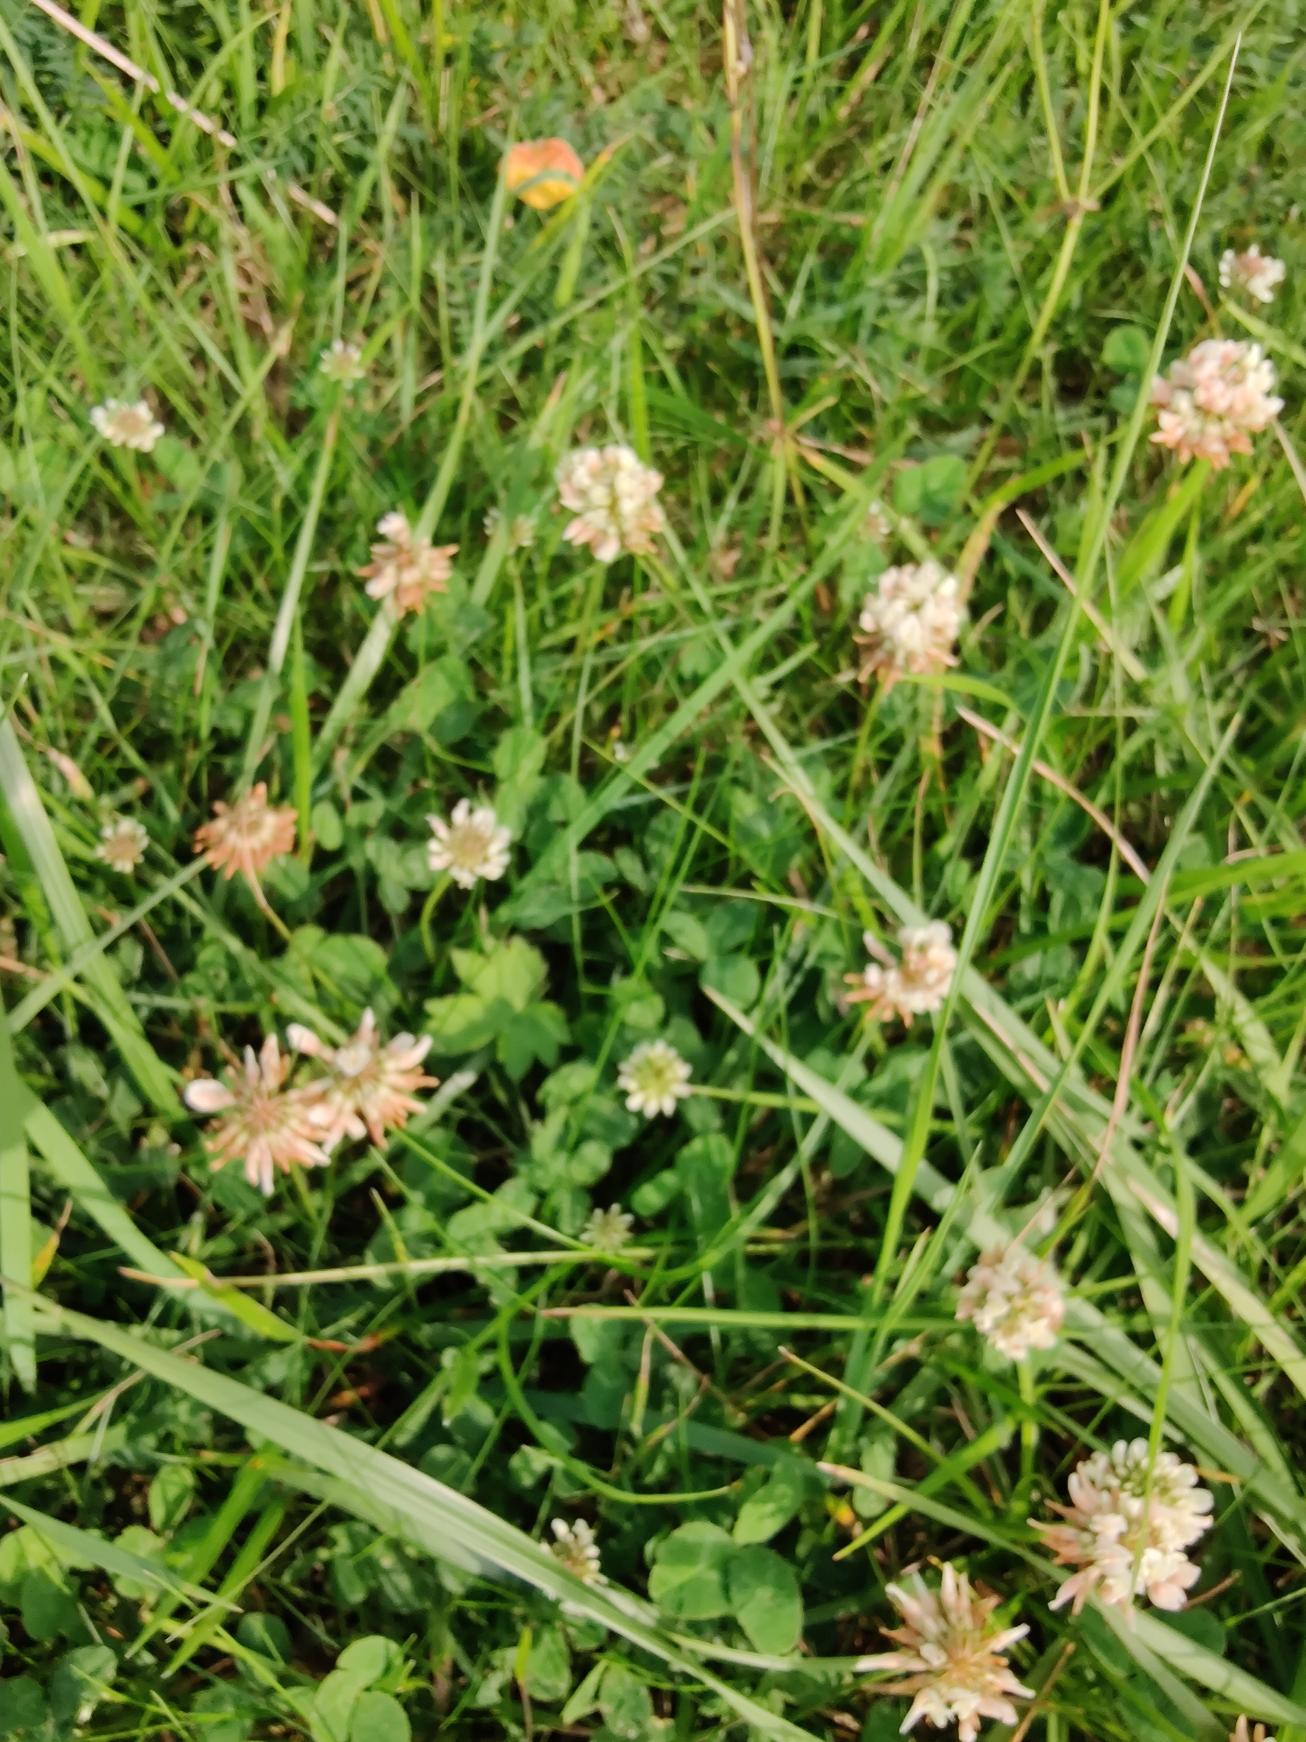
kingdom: Plantae
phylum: Tracheophyta
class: Magnoliopsida
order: Fabales
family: Fabaceae
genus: Trifolium
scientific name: Trifolium repens
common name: Hvid-kløver
